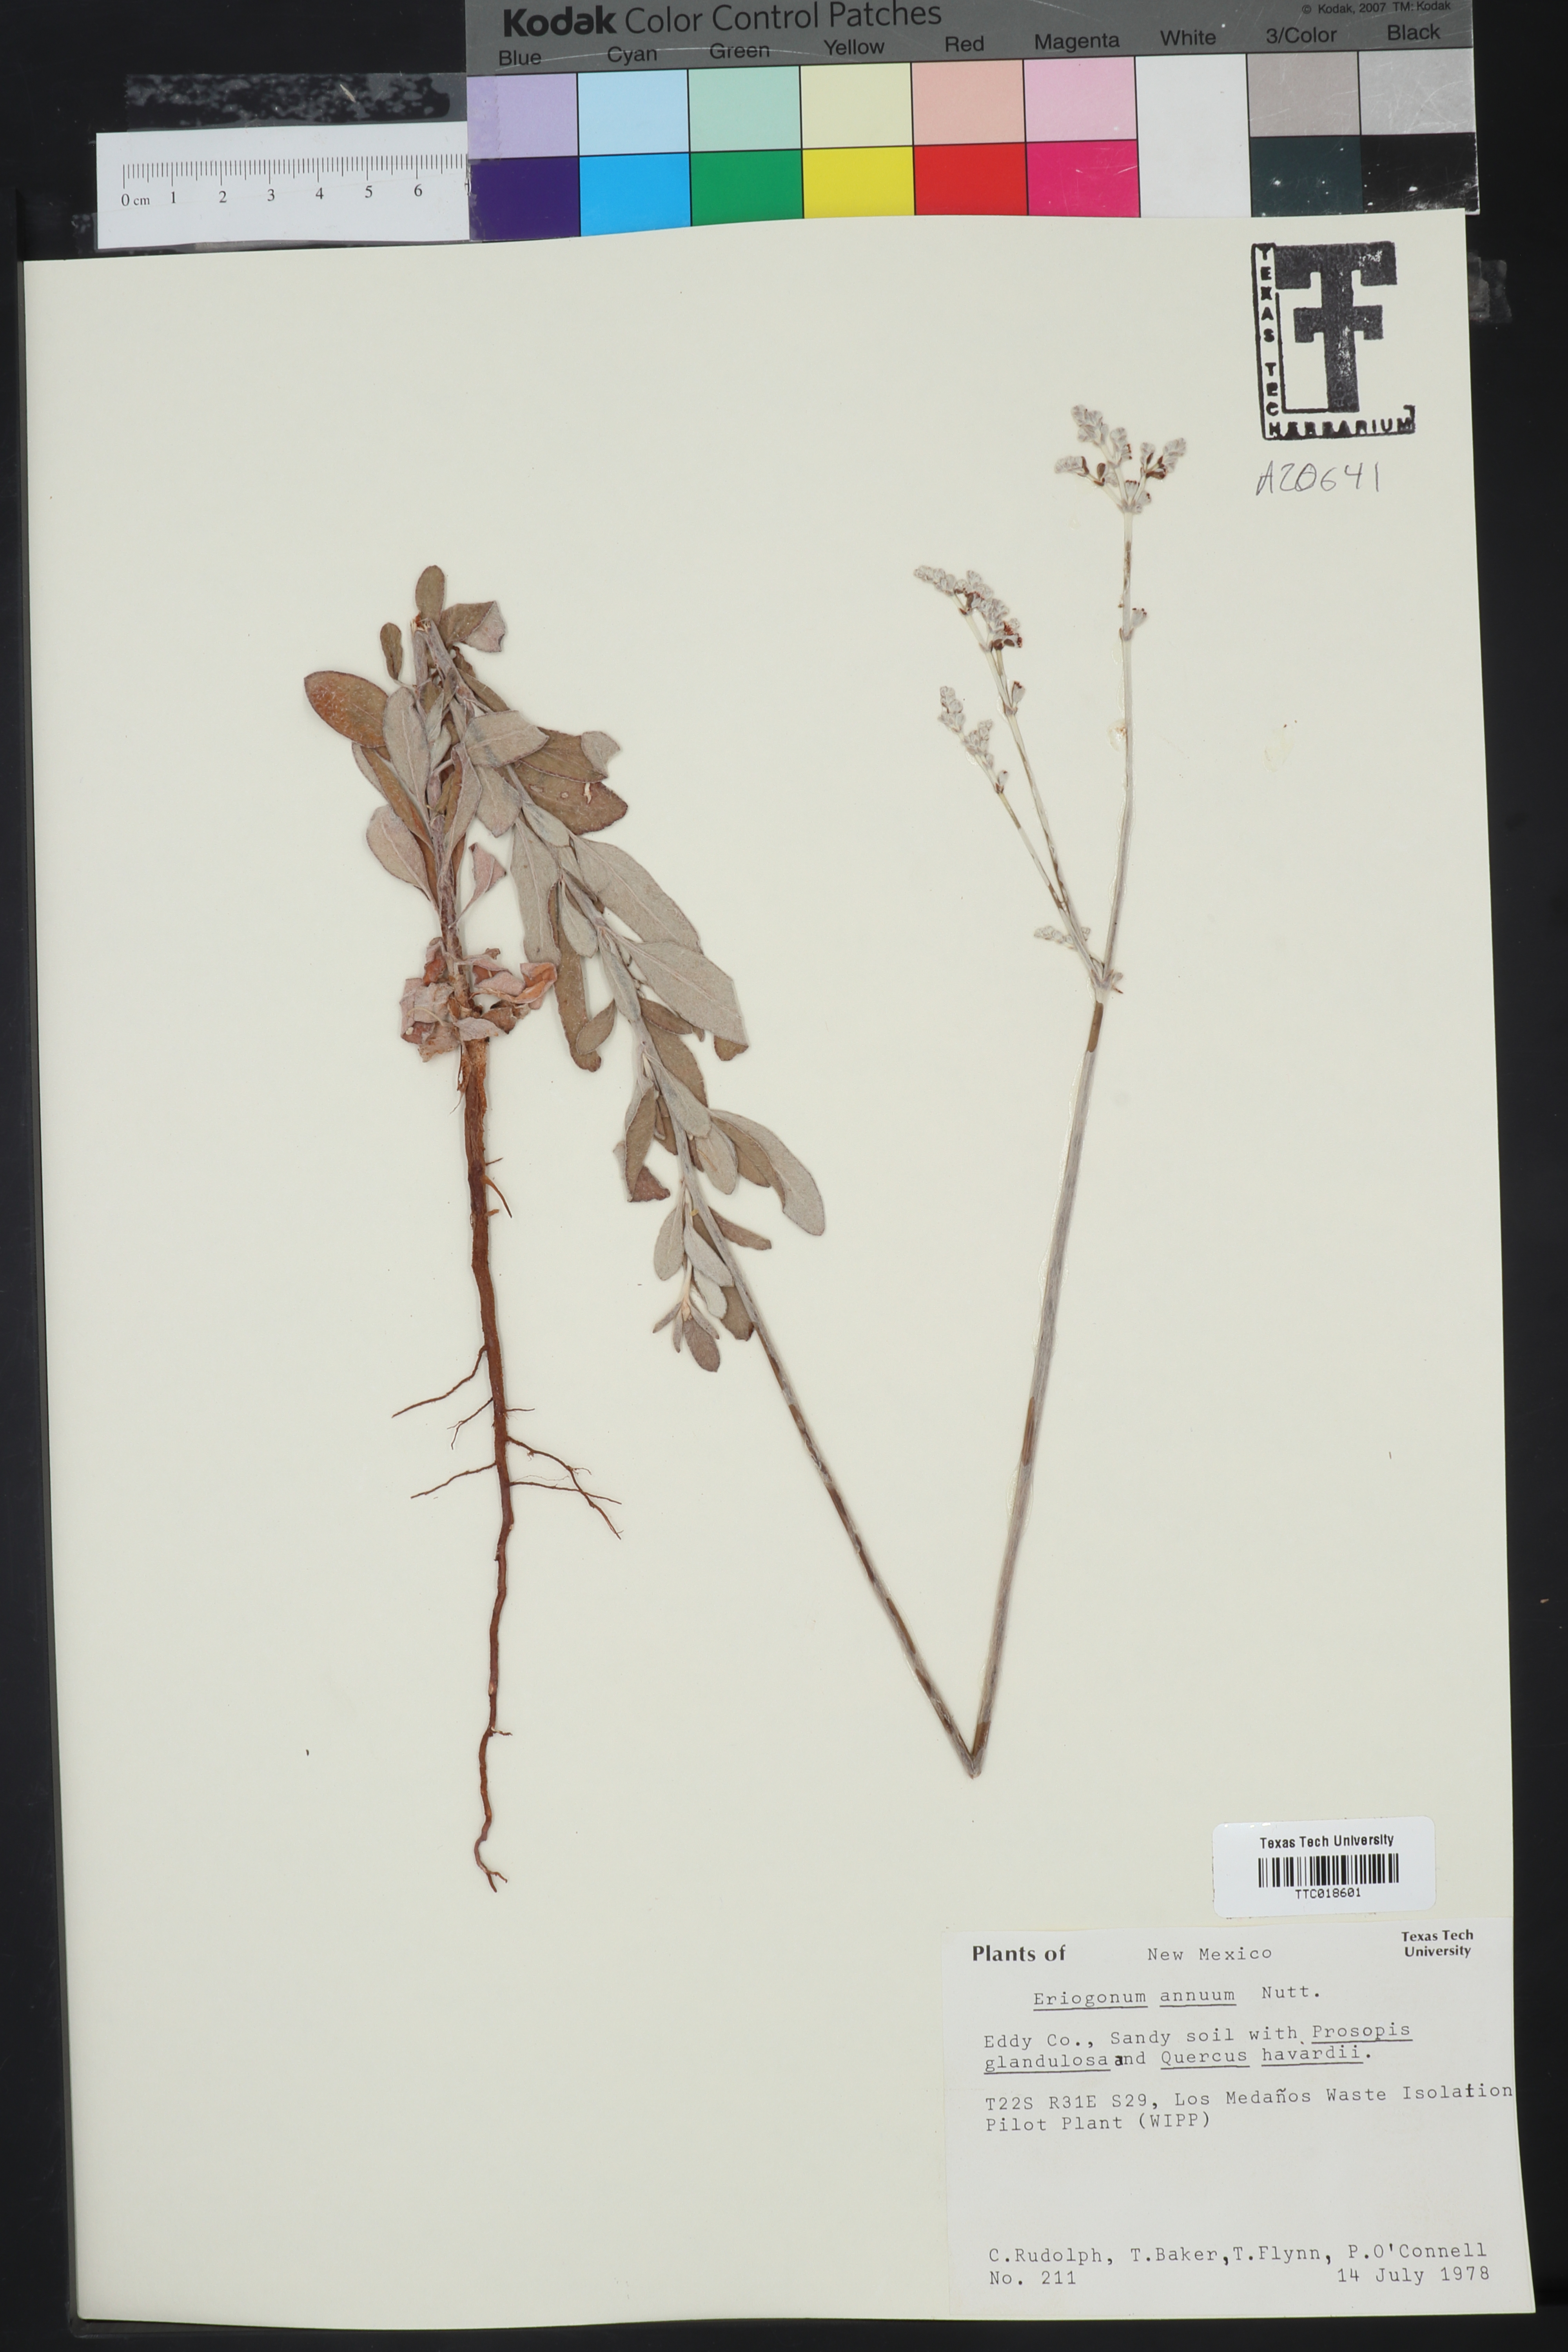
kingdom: Plantae
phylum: Tracheophyta
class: Magnoliopsida
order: Caryophyllales
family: Polygonaceae
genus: Eriogonum
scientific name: Eriogonum annuum
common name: Annual wild buckwheat
